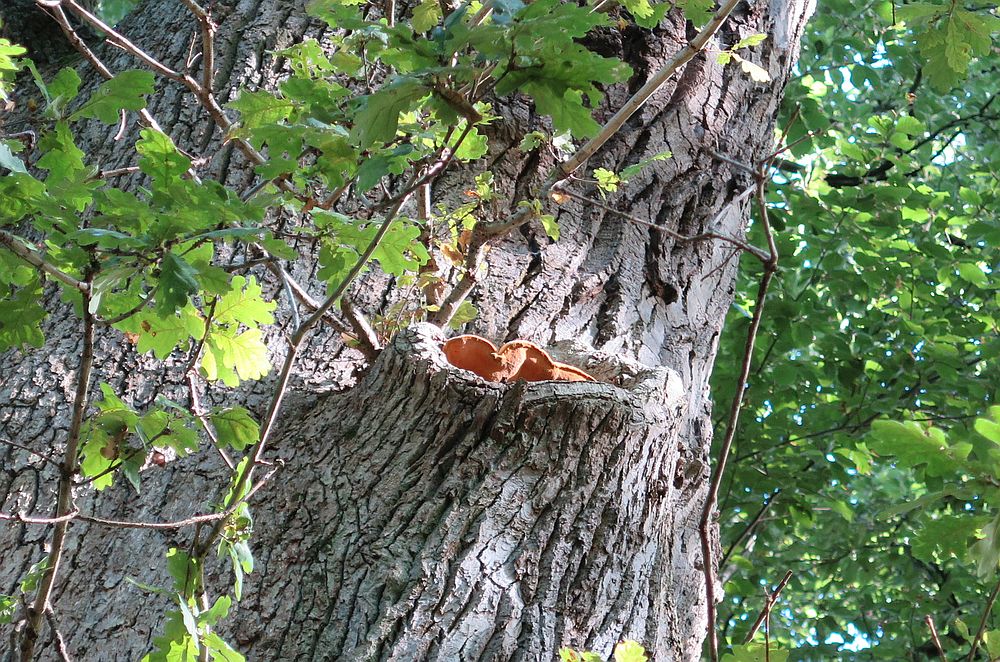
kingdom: Fungi
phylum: Basidiomycota
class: Agaricomycetes
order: Polyporales
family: Phanerochaetaceae
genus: Hapalopilus
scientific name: Hapalopilus croceus
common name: safrangul pragtporesvamp
